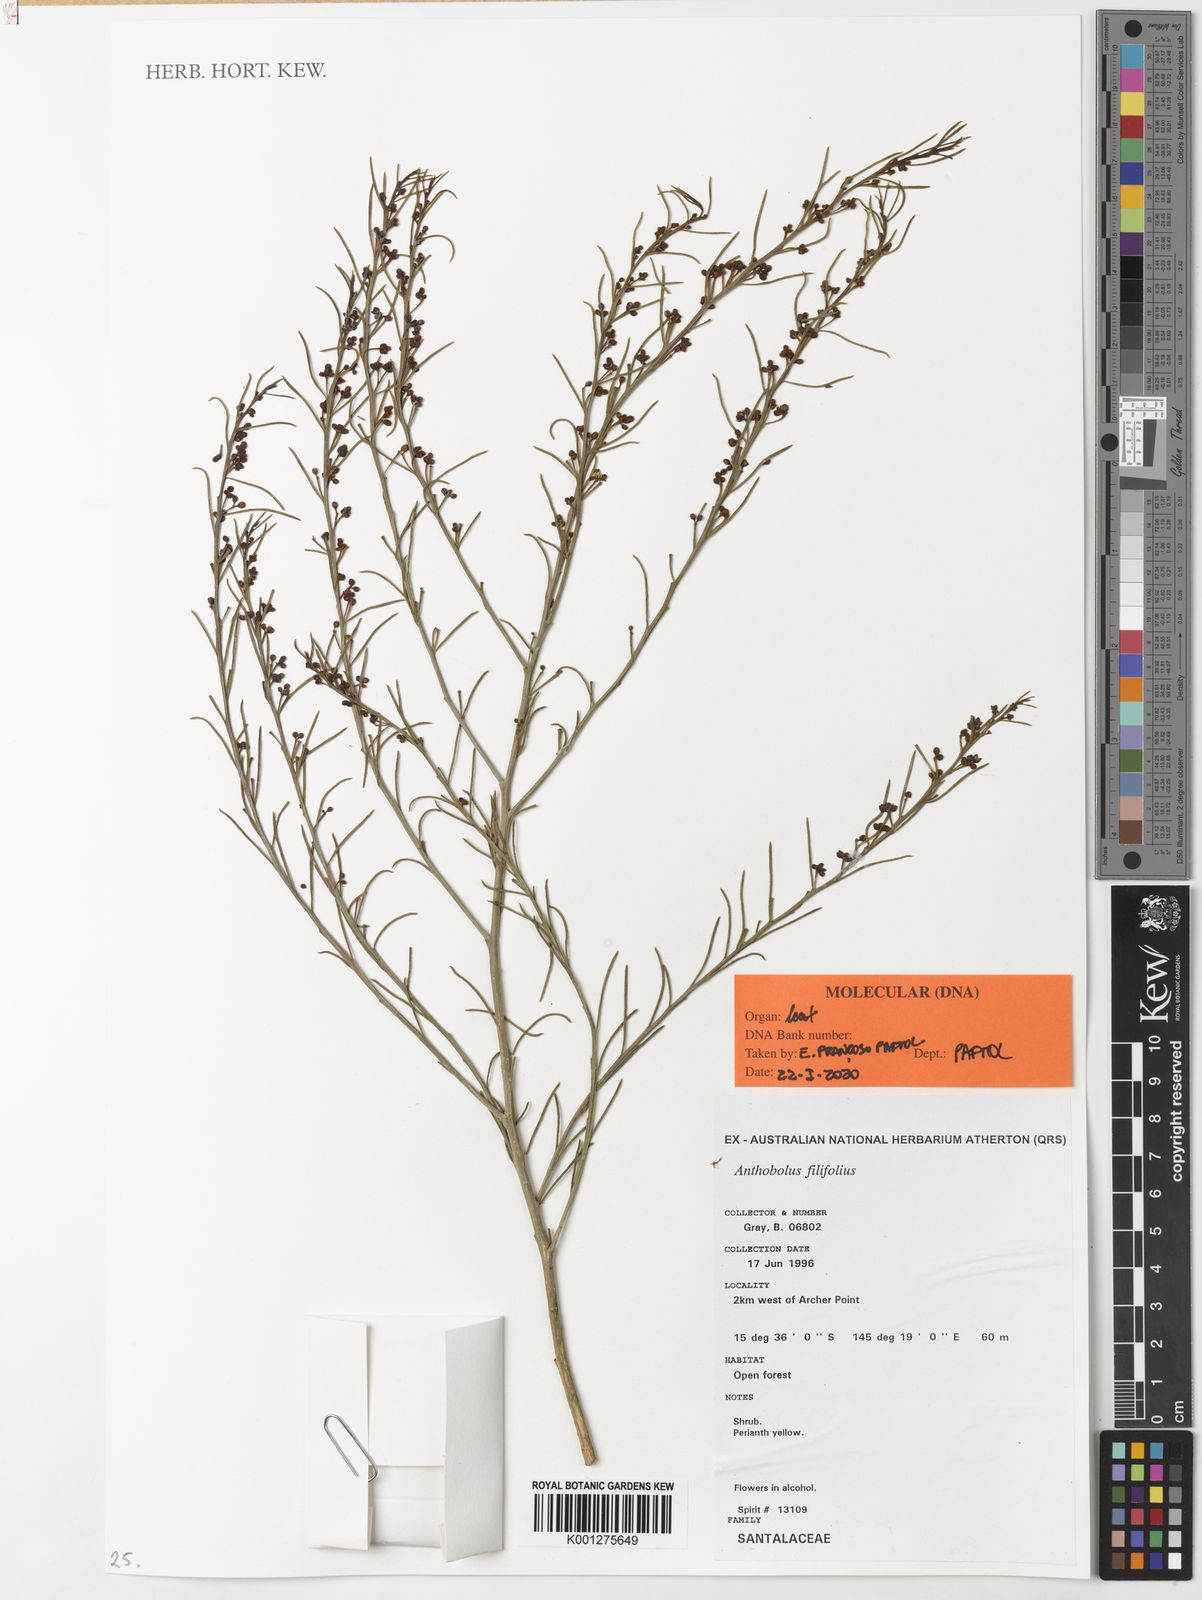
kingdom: Plantae
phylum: Tracheophyta
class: Magnoliopsida
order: Santalales
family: Opiliaceae
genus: Anthobolus
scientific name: Anthobolus filifolius
